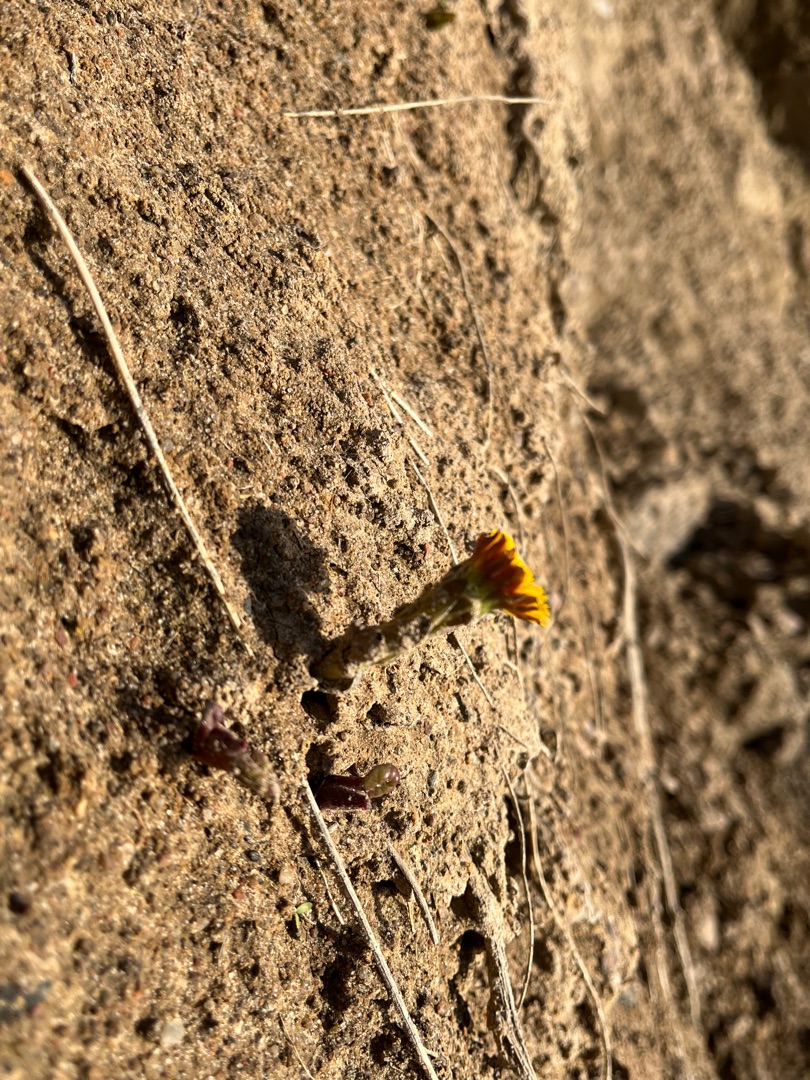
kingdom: Plantae
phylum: Tracheophyta
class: Magnoliopsida
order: Asterales
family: Asteraceae
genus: Tussilago
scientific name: Tussilago farfara
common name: Følfod
